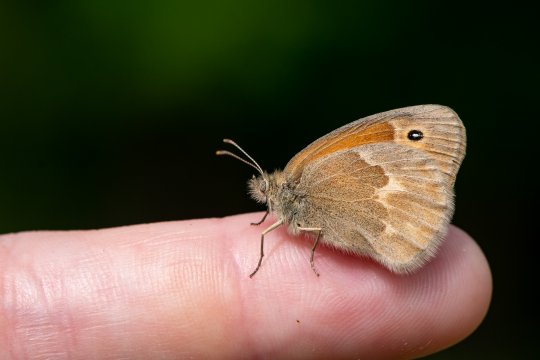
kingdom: Animalia
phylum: Arthropoda
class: Insecta
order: Lepidoptera
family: Nymphalidae
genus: Coenonympha
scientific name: Coenonympha tullia
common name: Large Heath
